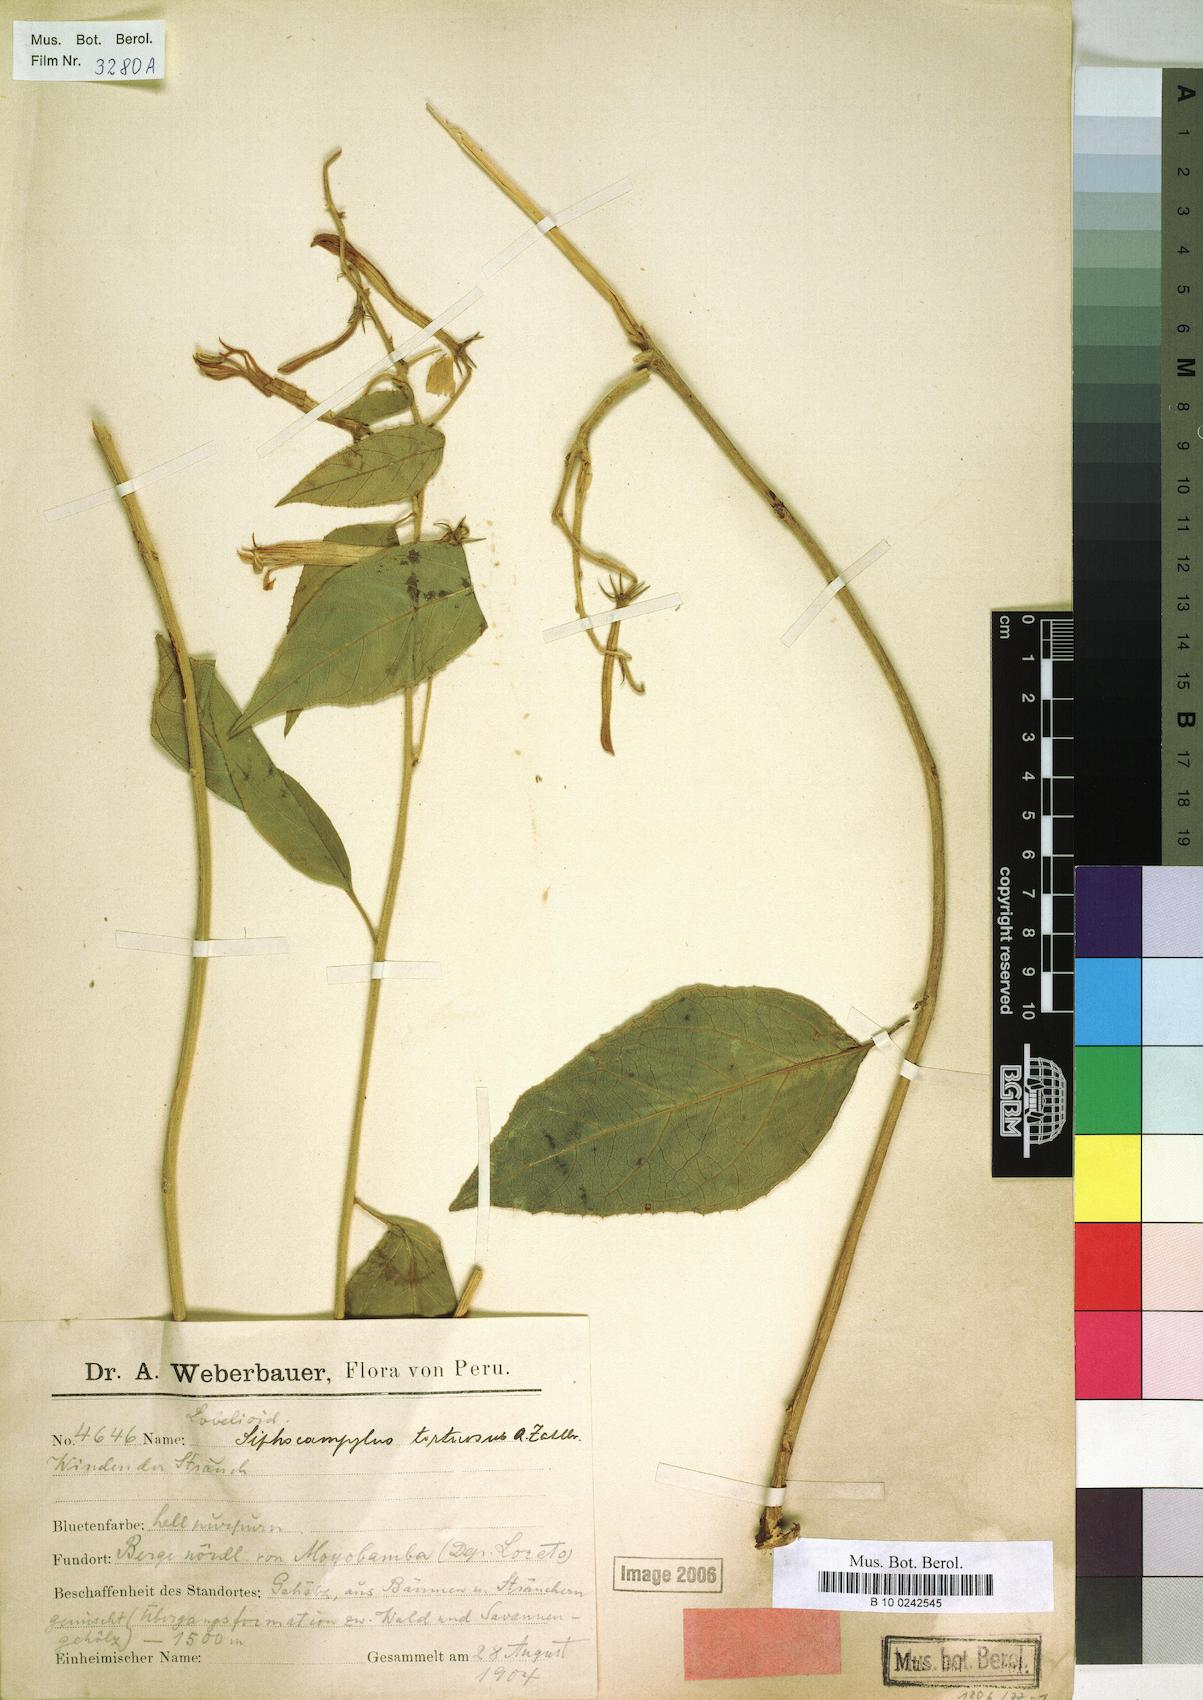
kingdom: Plantae
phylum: Tracheophyta
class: Magnoliopsida
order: Asterales
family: Campanulaceae
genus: Siphocampylus
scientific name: Siphocampylus tortuosus
